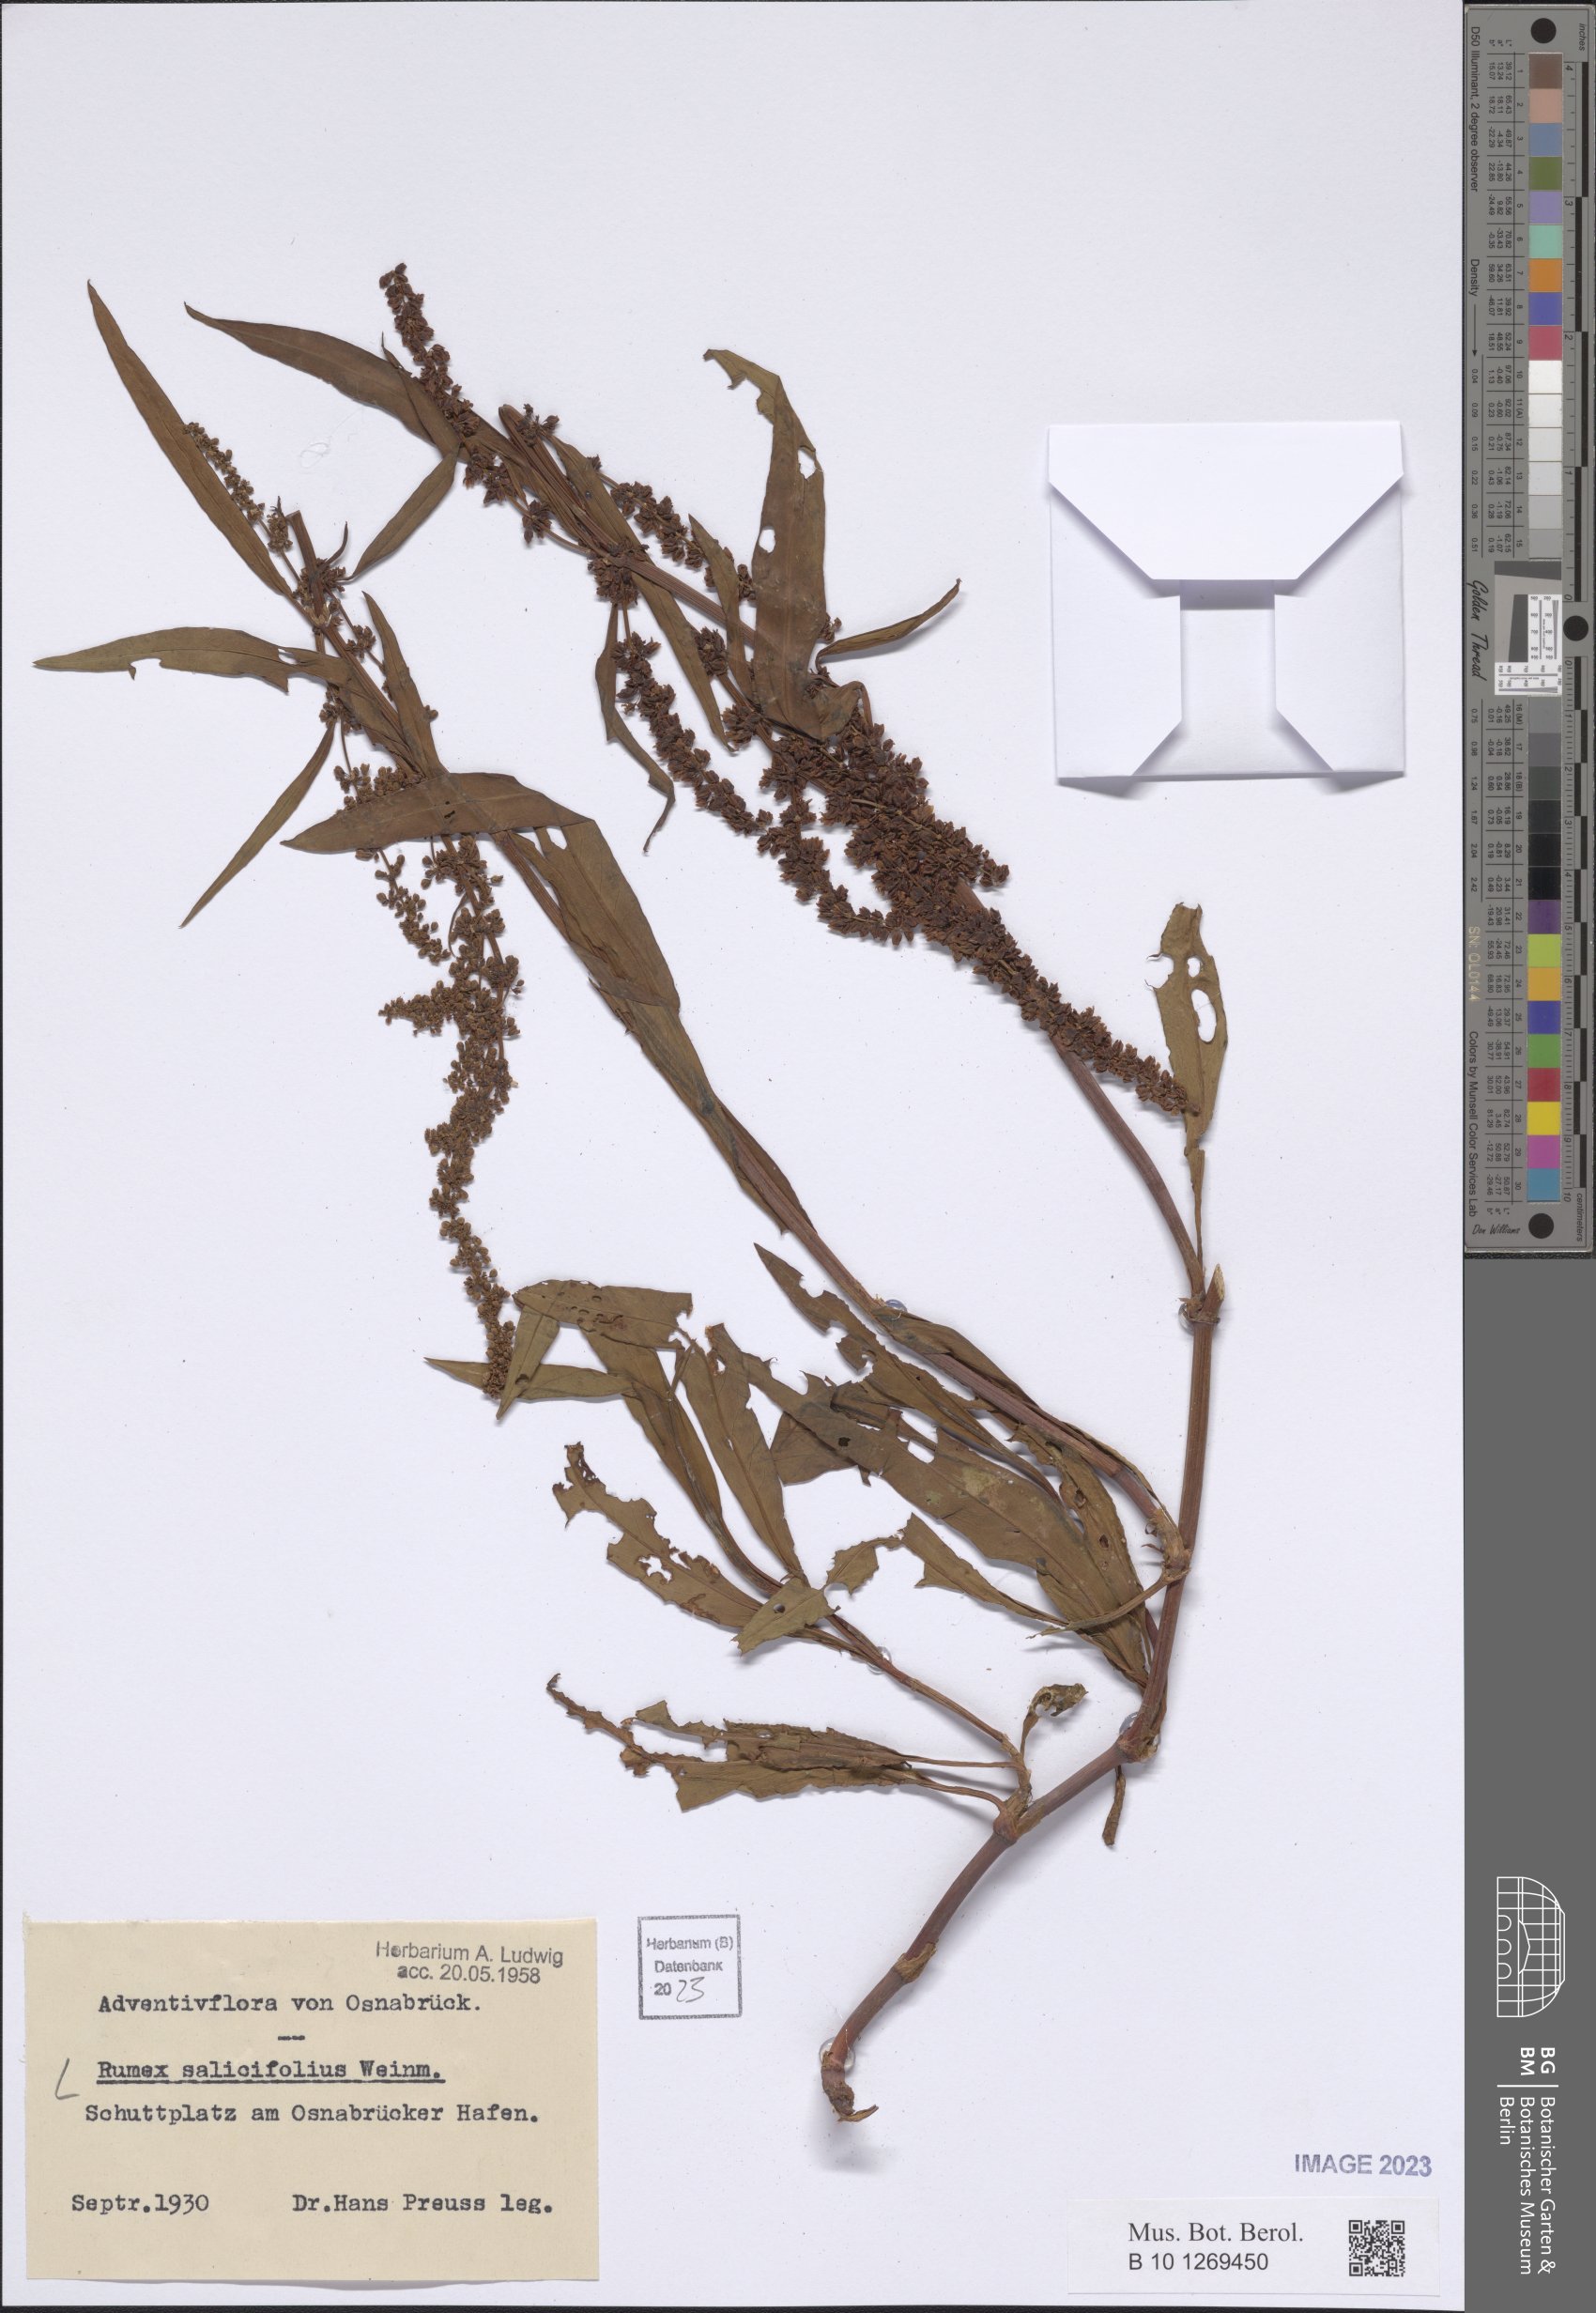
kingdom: Plantae
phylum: Tracheophyta
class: Magnoliopsida
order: Caryophyllales
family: Polygonaceae
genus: Rumex
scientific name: Rumex salicifolius
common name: Willow-leaved dock
